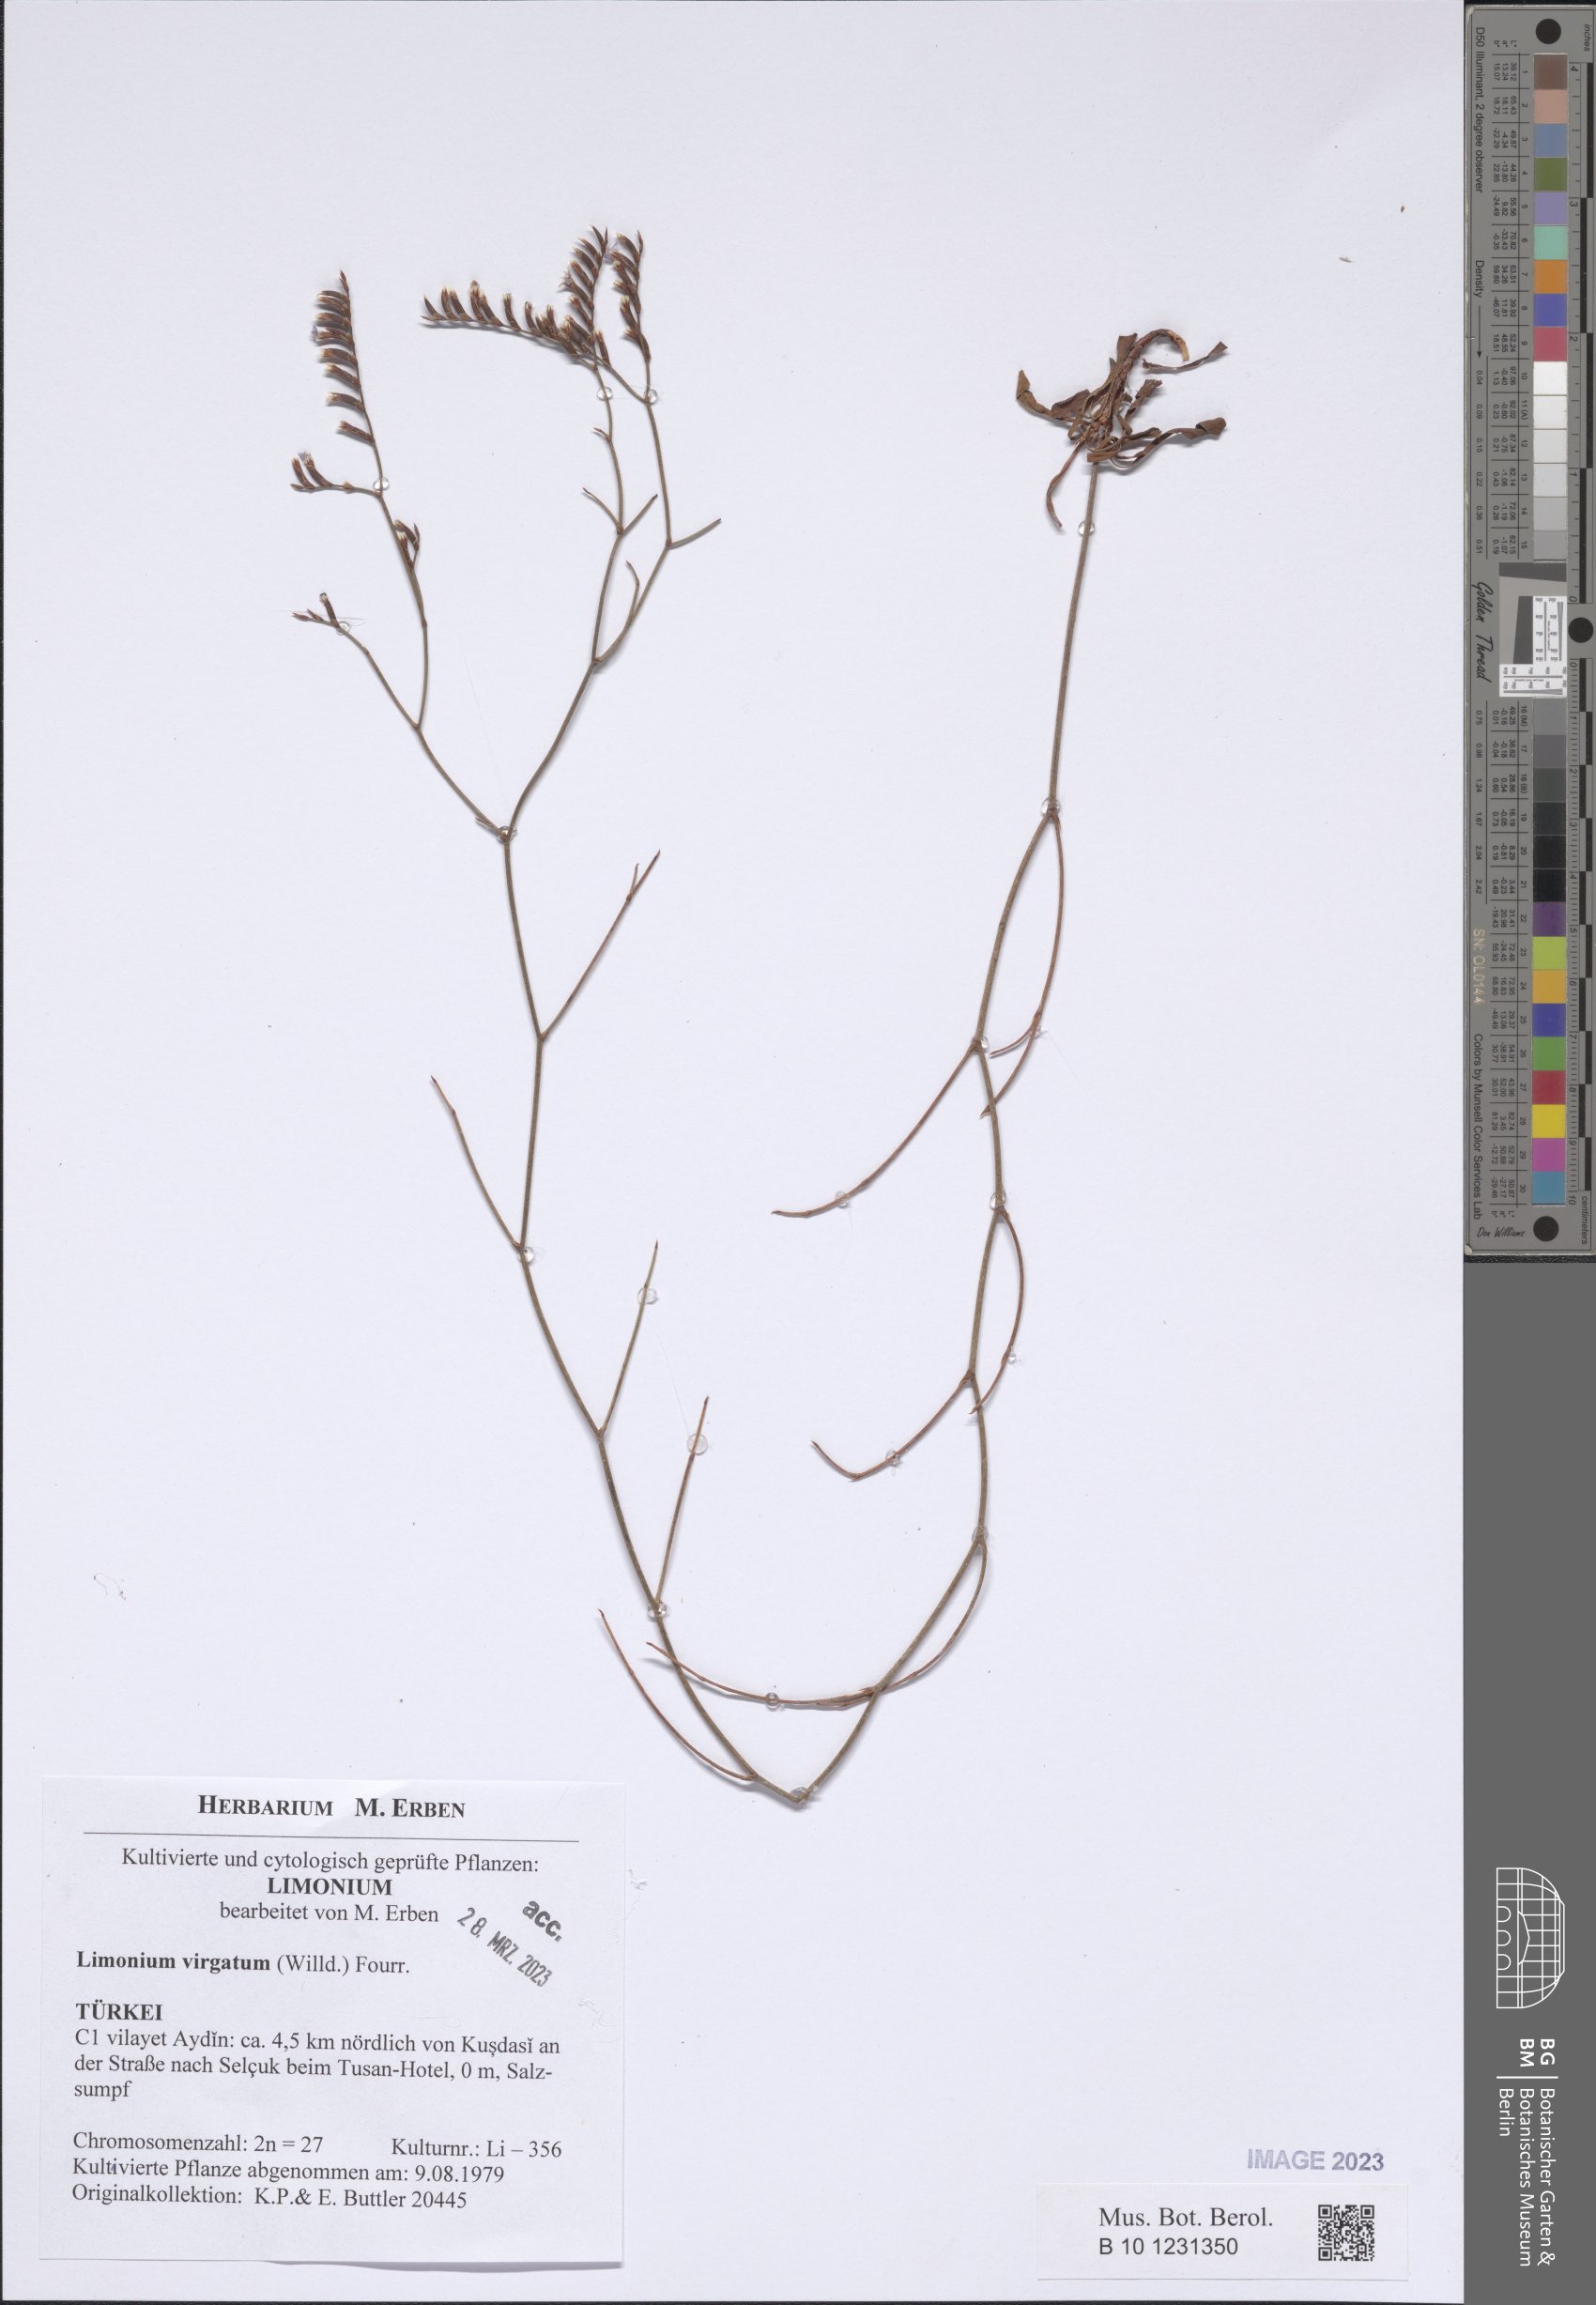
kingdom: Plantae
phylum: Tracheophyta
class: Magnoliopsida
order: Caryophyllales
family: Plumbaginaceae
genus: Limonium
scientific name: Limonium virgatum
